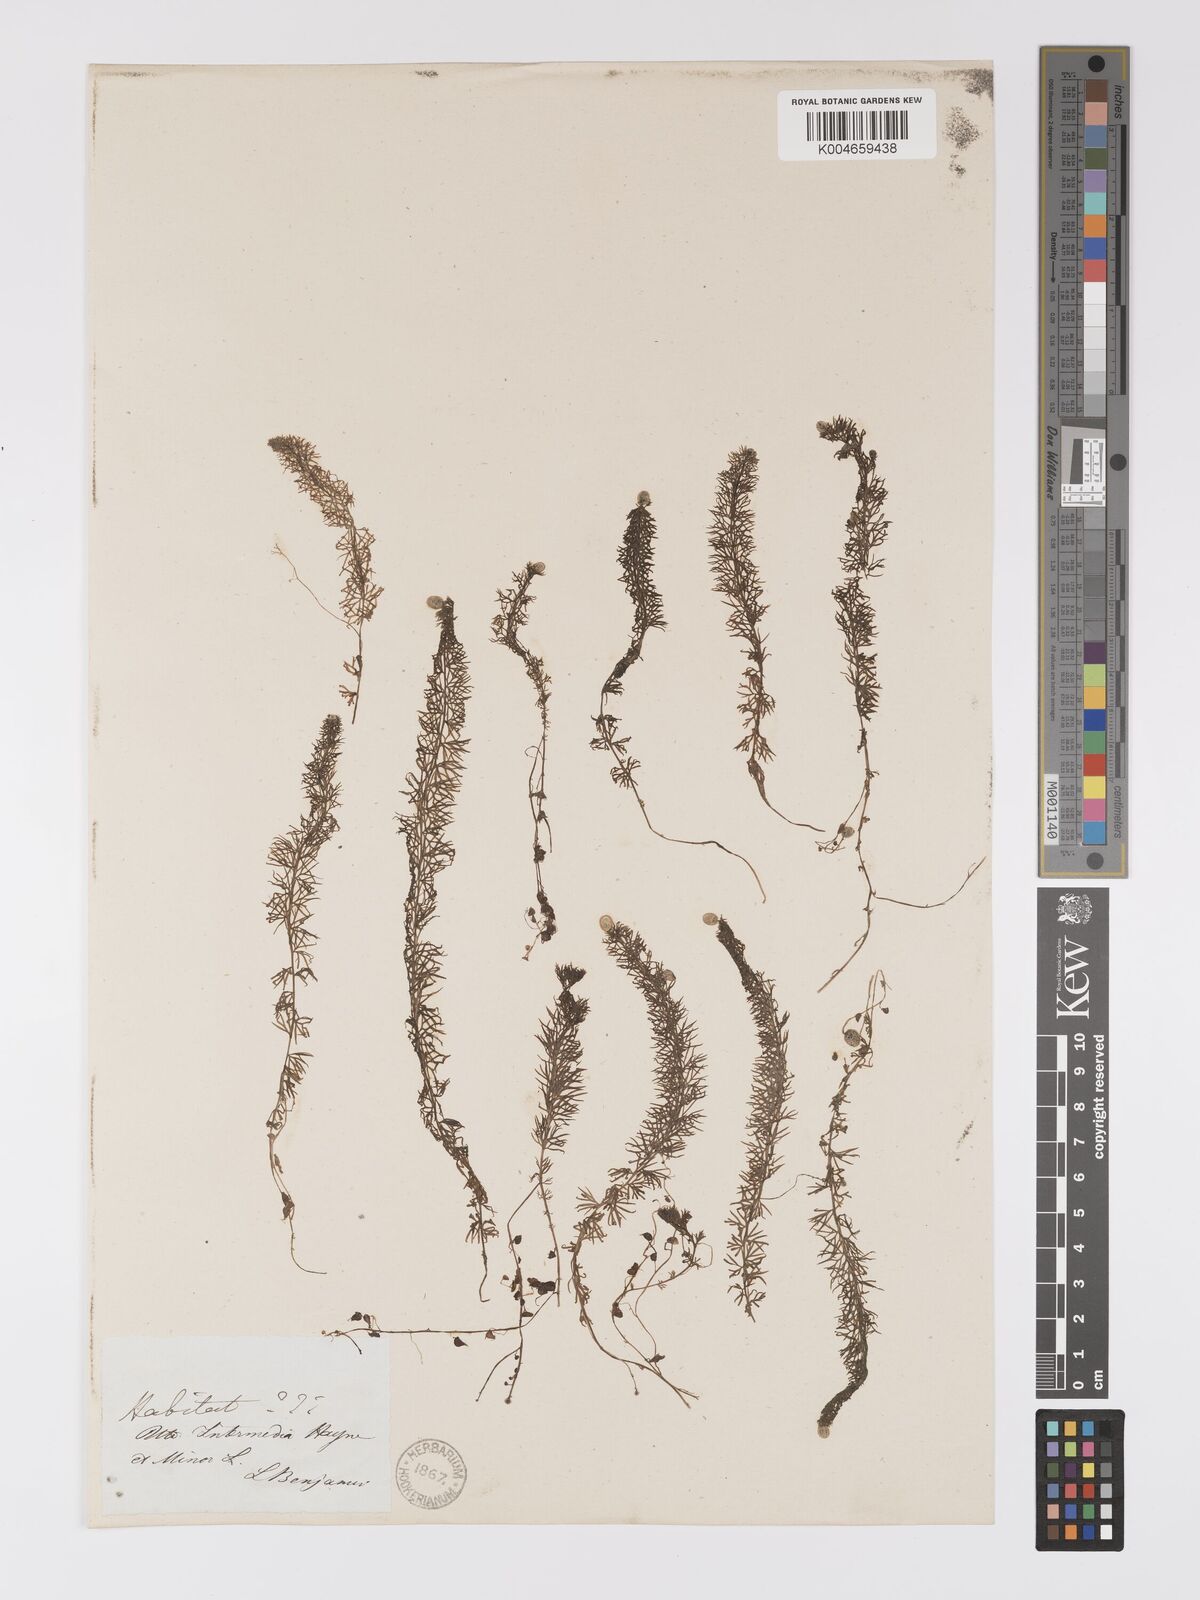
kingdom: Plantae
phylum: Tracheophyta
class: Magnoliopsida
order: Lamiales
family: Lentibulariaceae
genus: Utricularia
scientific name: Utricularia intermedia
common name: Intermediate bladderwort
